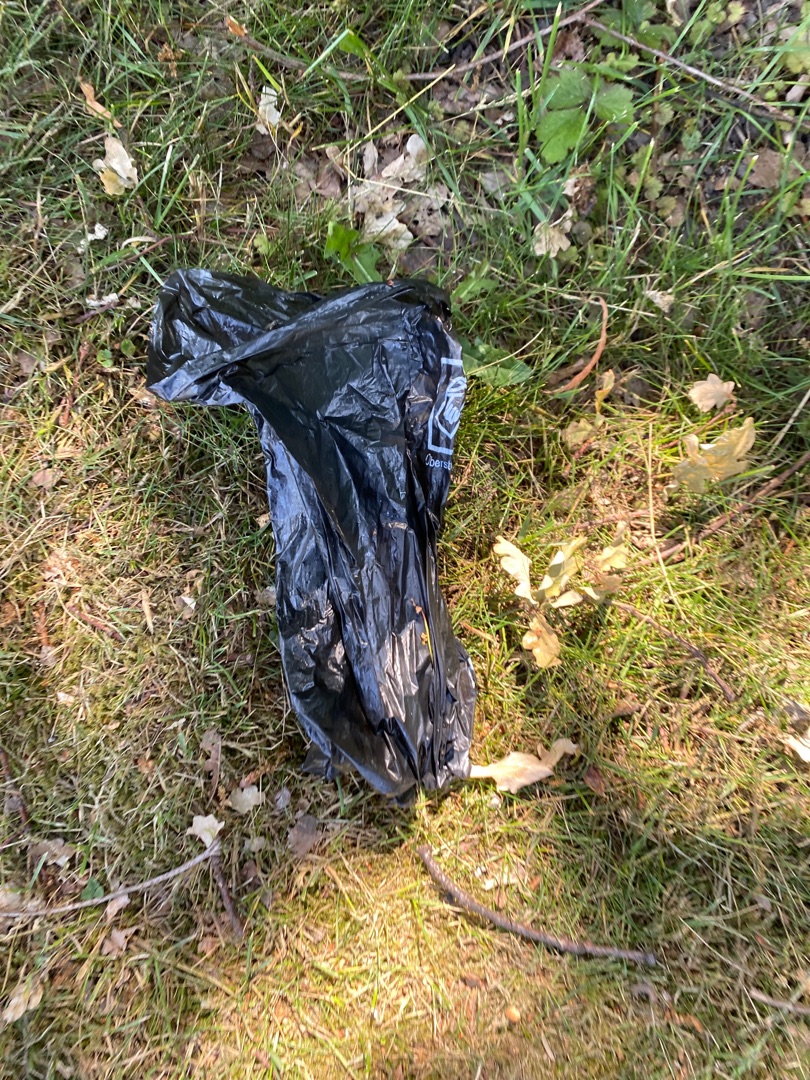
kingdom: Animalia
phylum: Chordata
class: Aves
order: Columbiformes
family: Columbidae
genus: Columba
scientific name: Columba palumbus
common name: Ringdue
